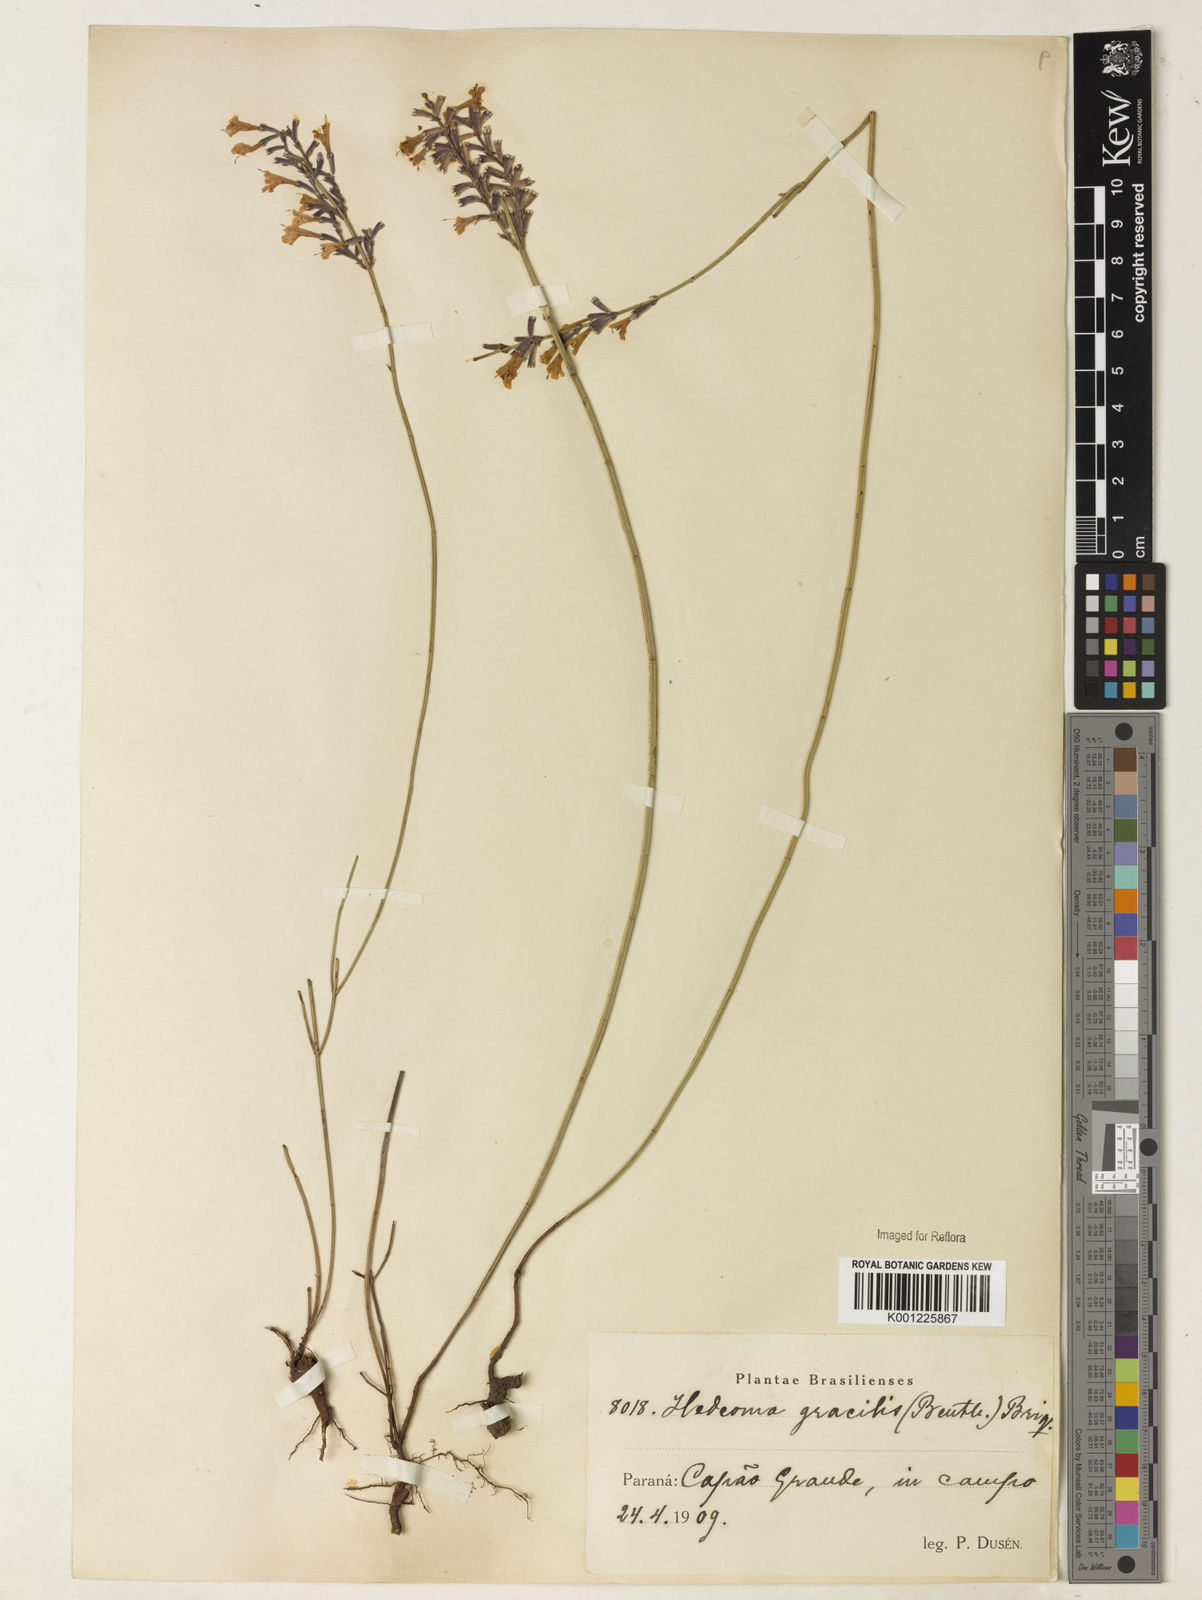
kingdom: Plantae
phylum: Tracheophyta
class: Magnoliopsida
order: Lamiales
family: Lamiaceae
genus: Rhabdocaulon
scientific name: Rhabdocaulon gracile
